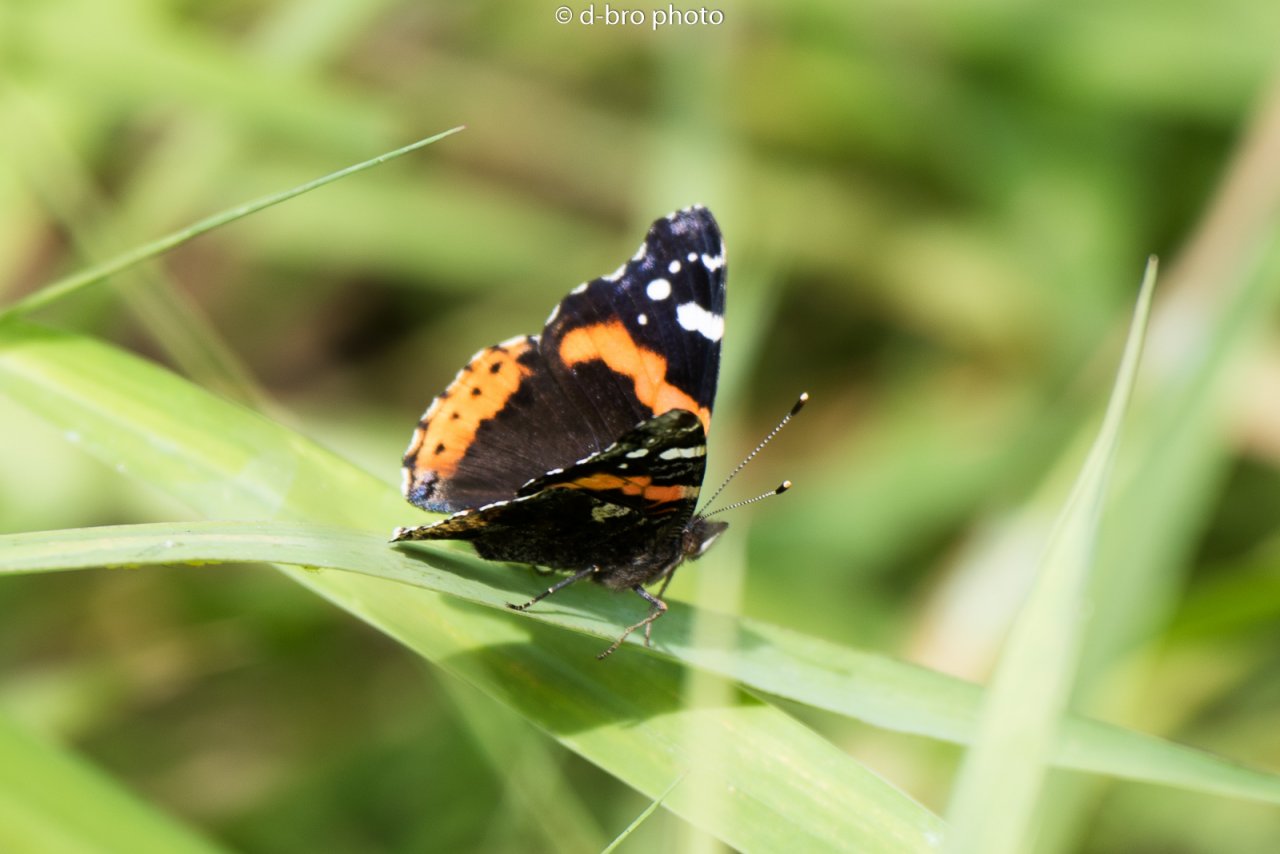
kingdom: Animalia
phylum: Arthropoda
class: Insecta
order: Lepidoptera
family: Nymphalidae
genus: Vanessa
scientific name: Vanessa atalanta
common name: Red Admiral
